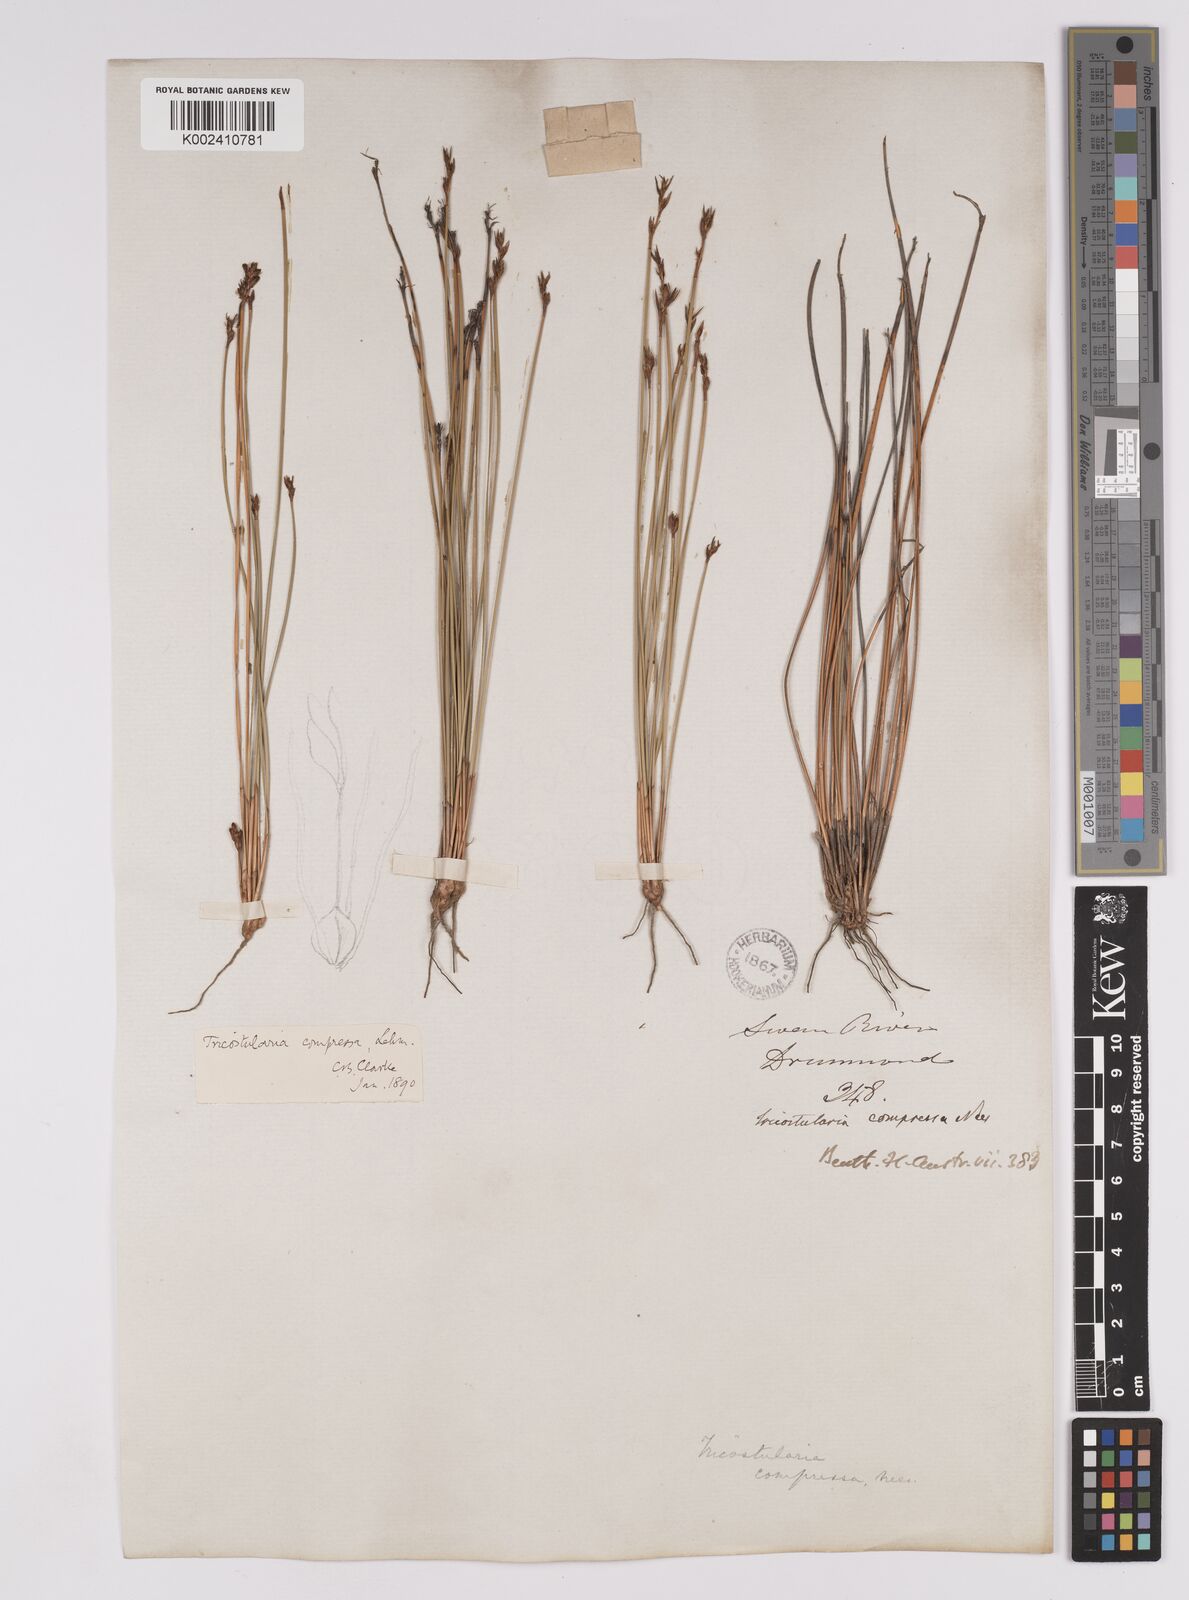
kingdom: Plantae
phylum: Tracheophyta
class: Liliopsida
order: Poales
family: Cyperaceae
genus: Tricostularia
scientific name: Tricostularia compressa
